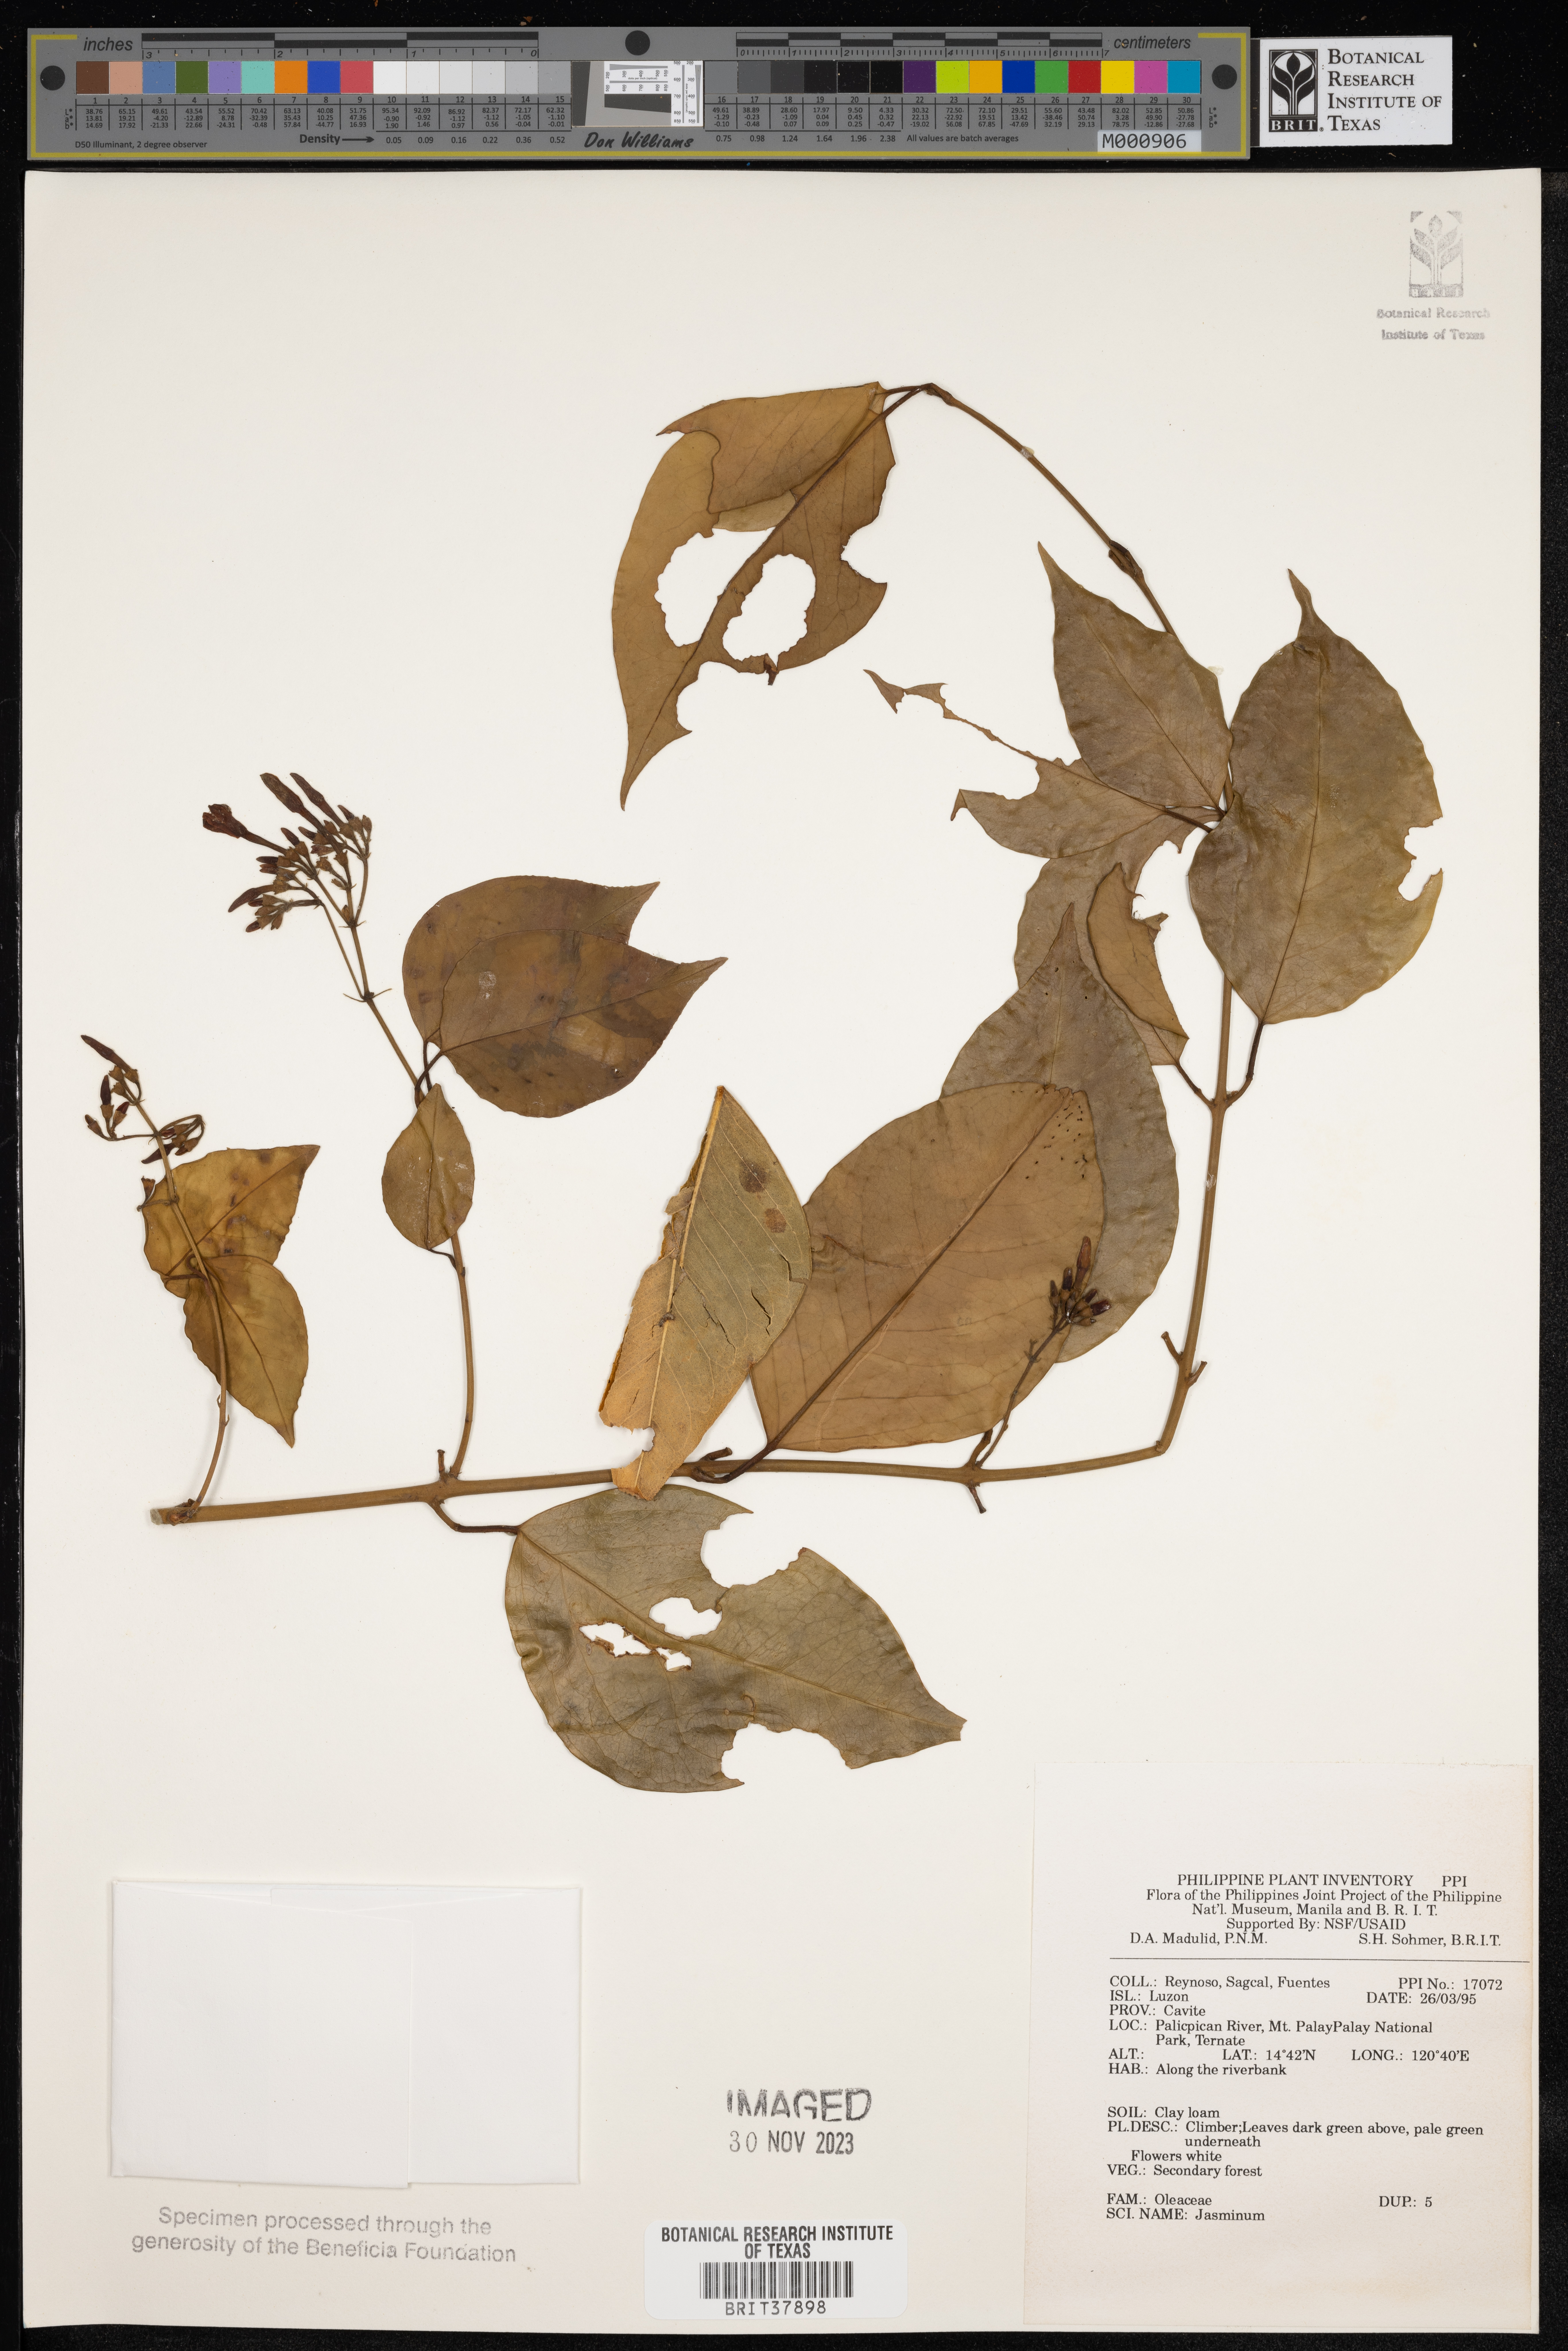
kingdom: Plantae
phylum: Tracheophyta
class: Magnoliopsida
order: Lamiales
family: Oleaceae
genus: Jasminum
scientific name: Jasminum
